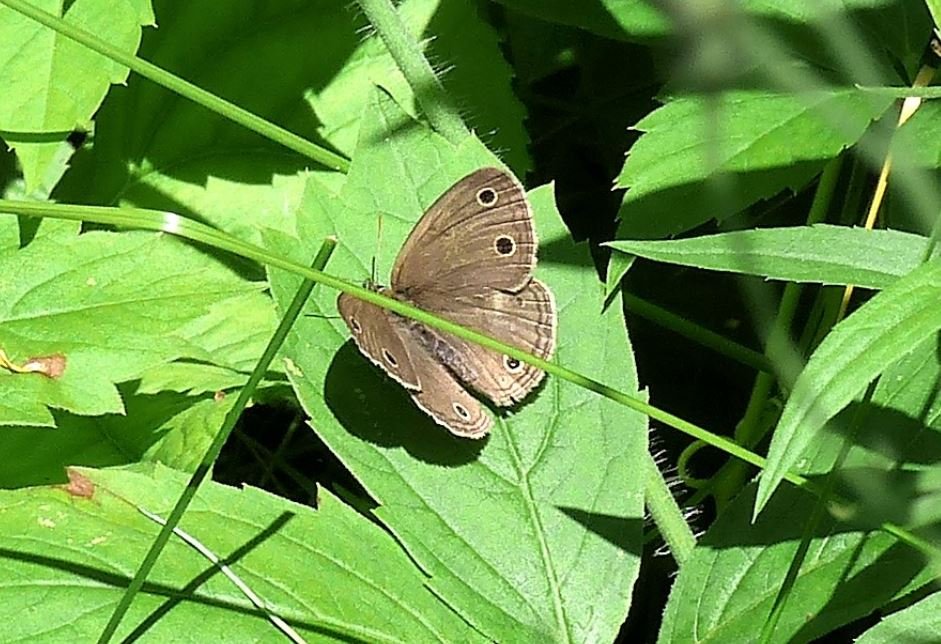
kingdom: Animalia
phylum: Arthropoda
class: Insecta
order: Lepidoptera
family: Nymphalidae
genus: Euptychia
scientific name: Euptychia cymela
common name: Little Wood Satyr
